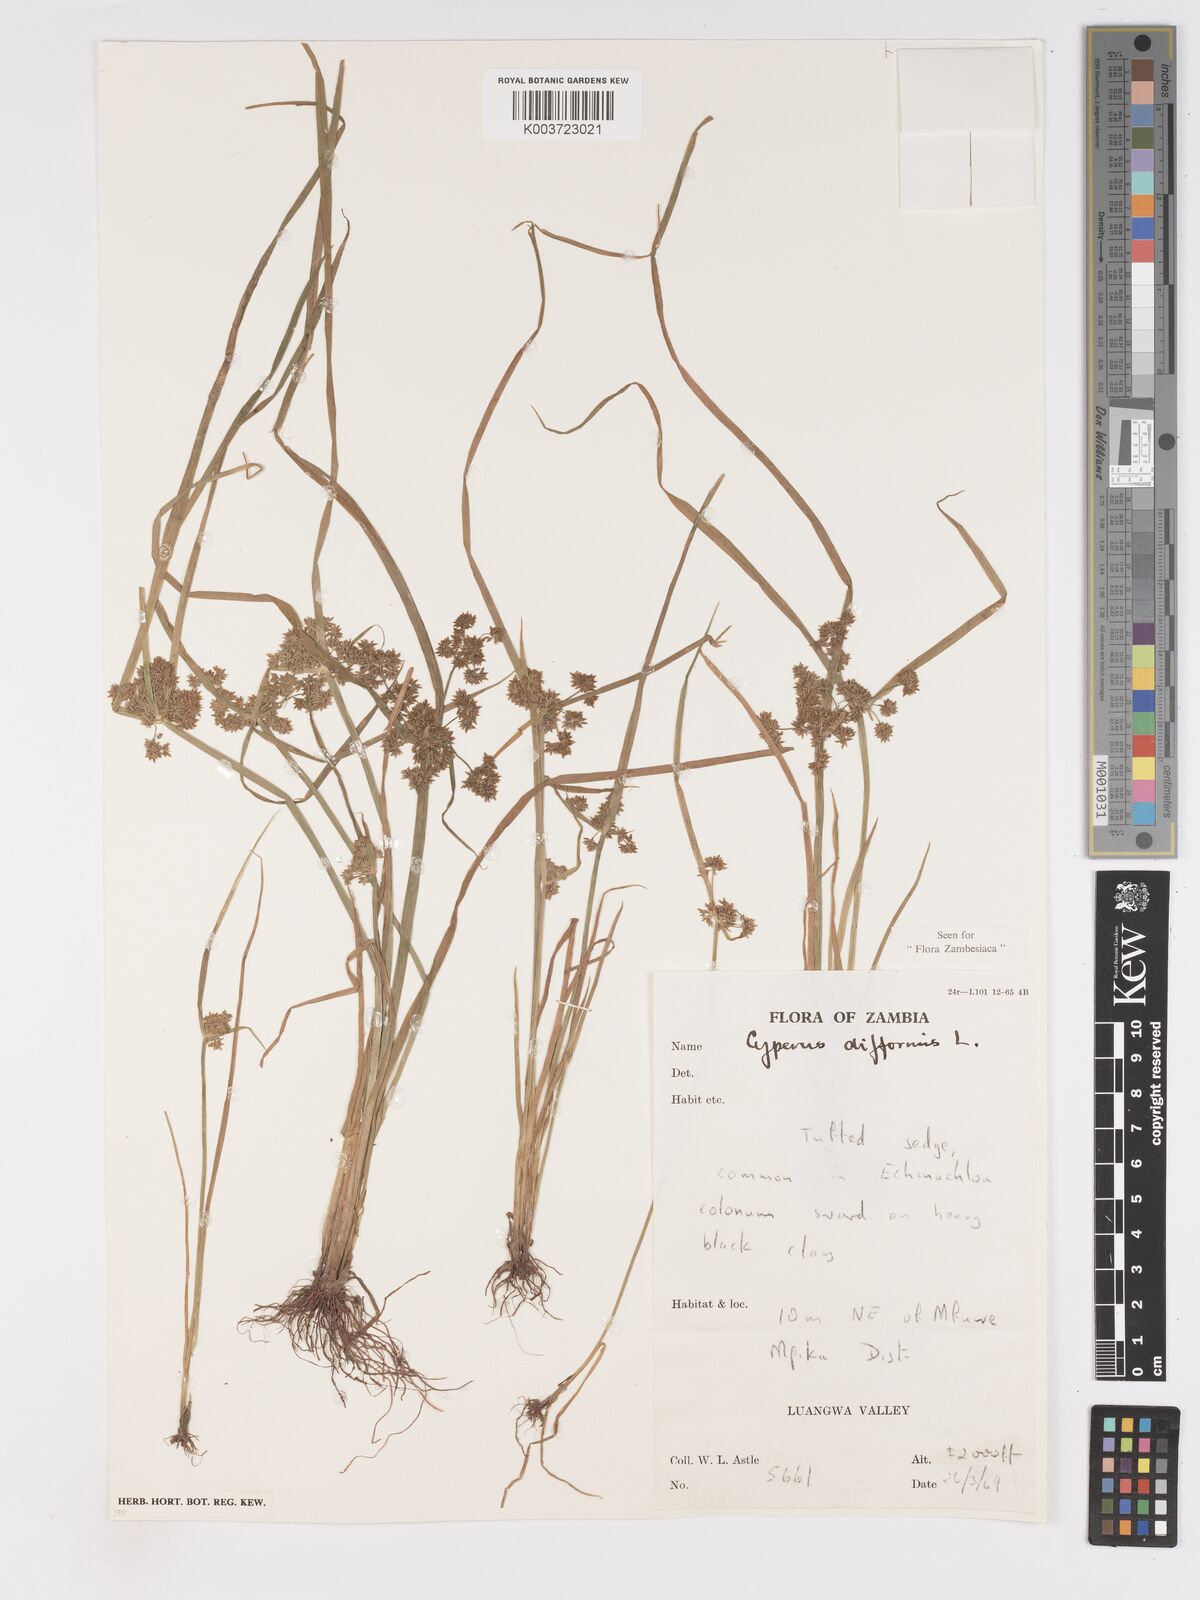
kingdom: Plantae
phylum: Tracheophyta
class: Liliopsida
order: Poales
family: Cyperaceae
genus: Cyperus
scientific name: Cyperus difformis
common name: Variable flatsedge
